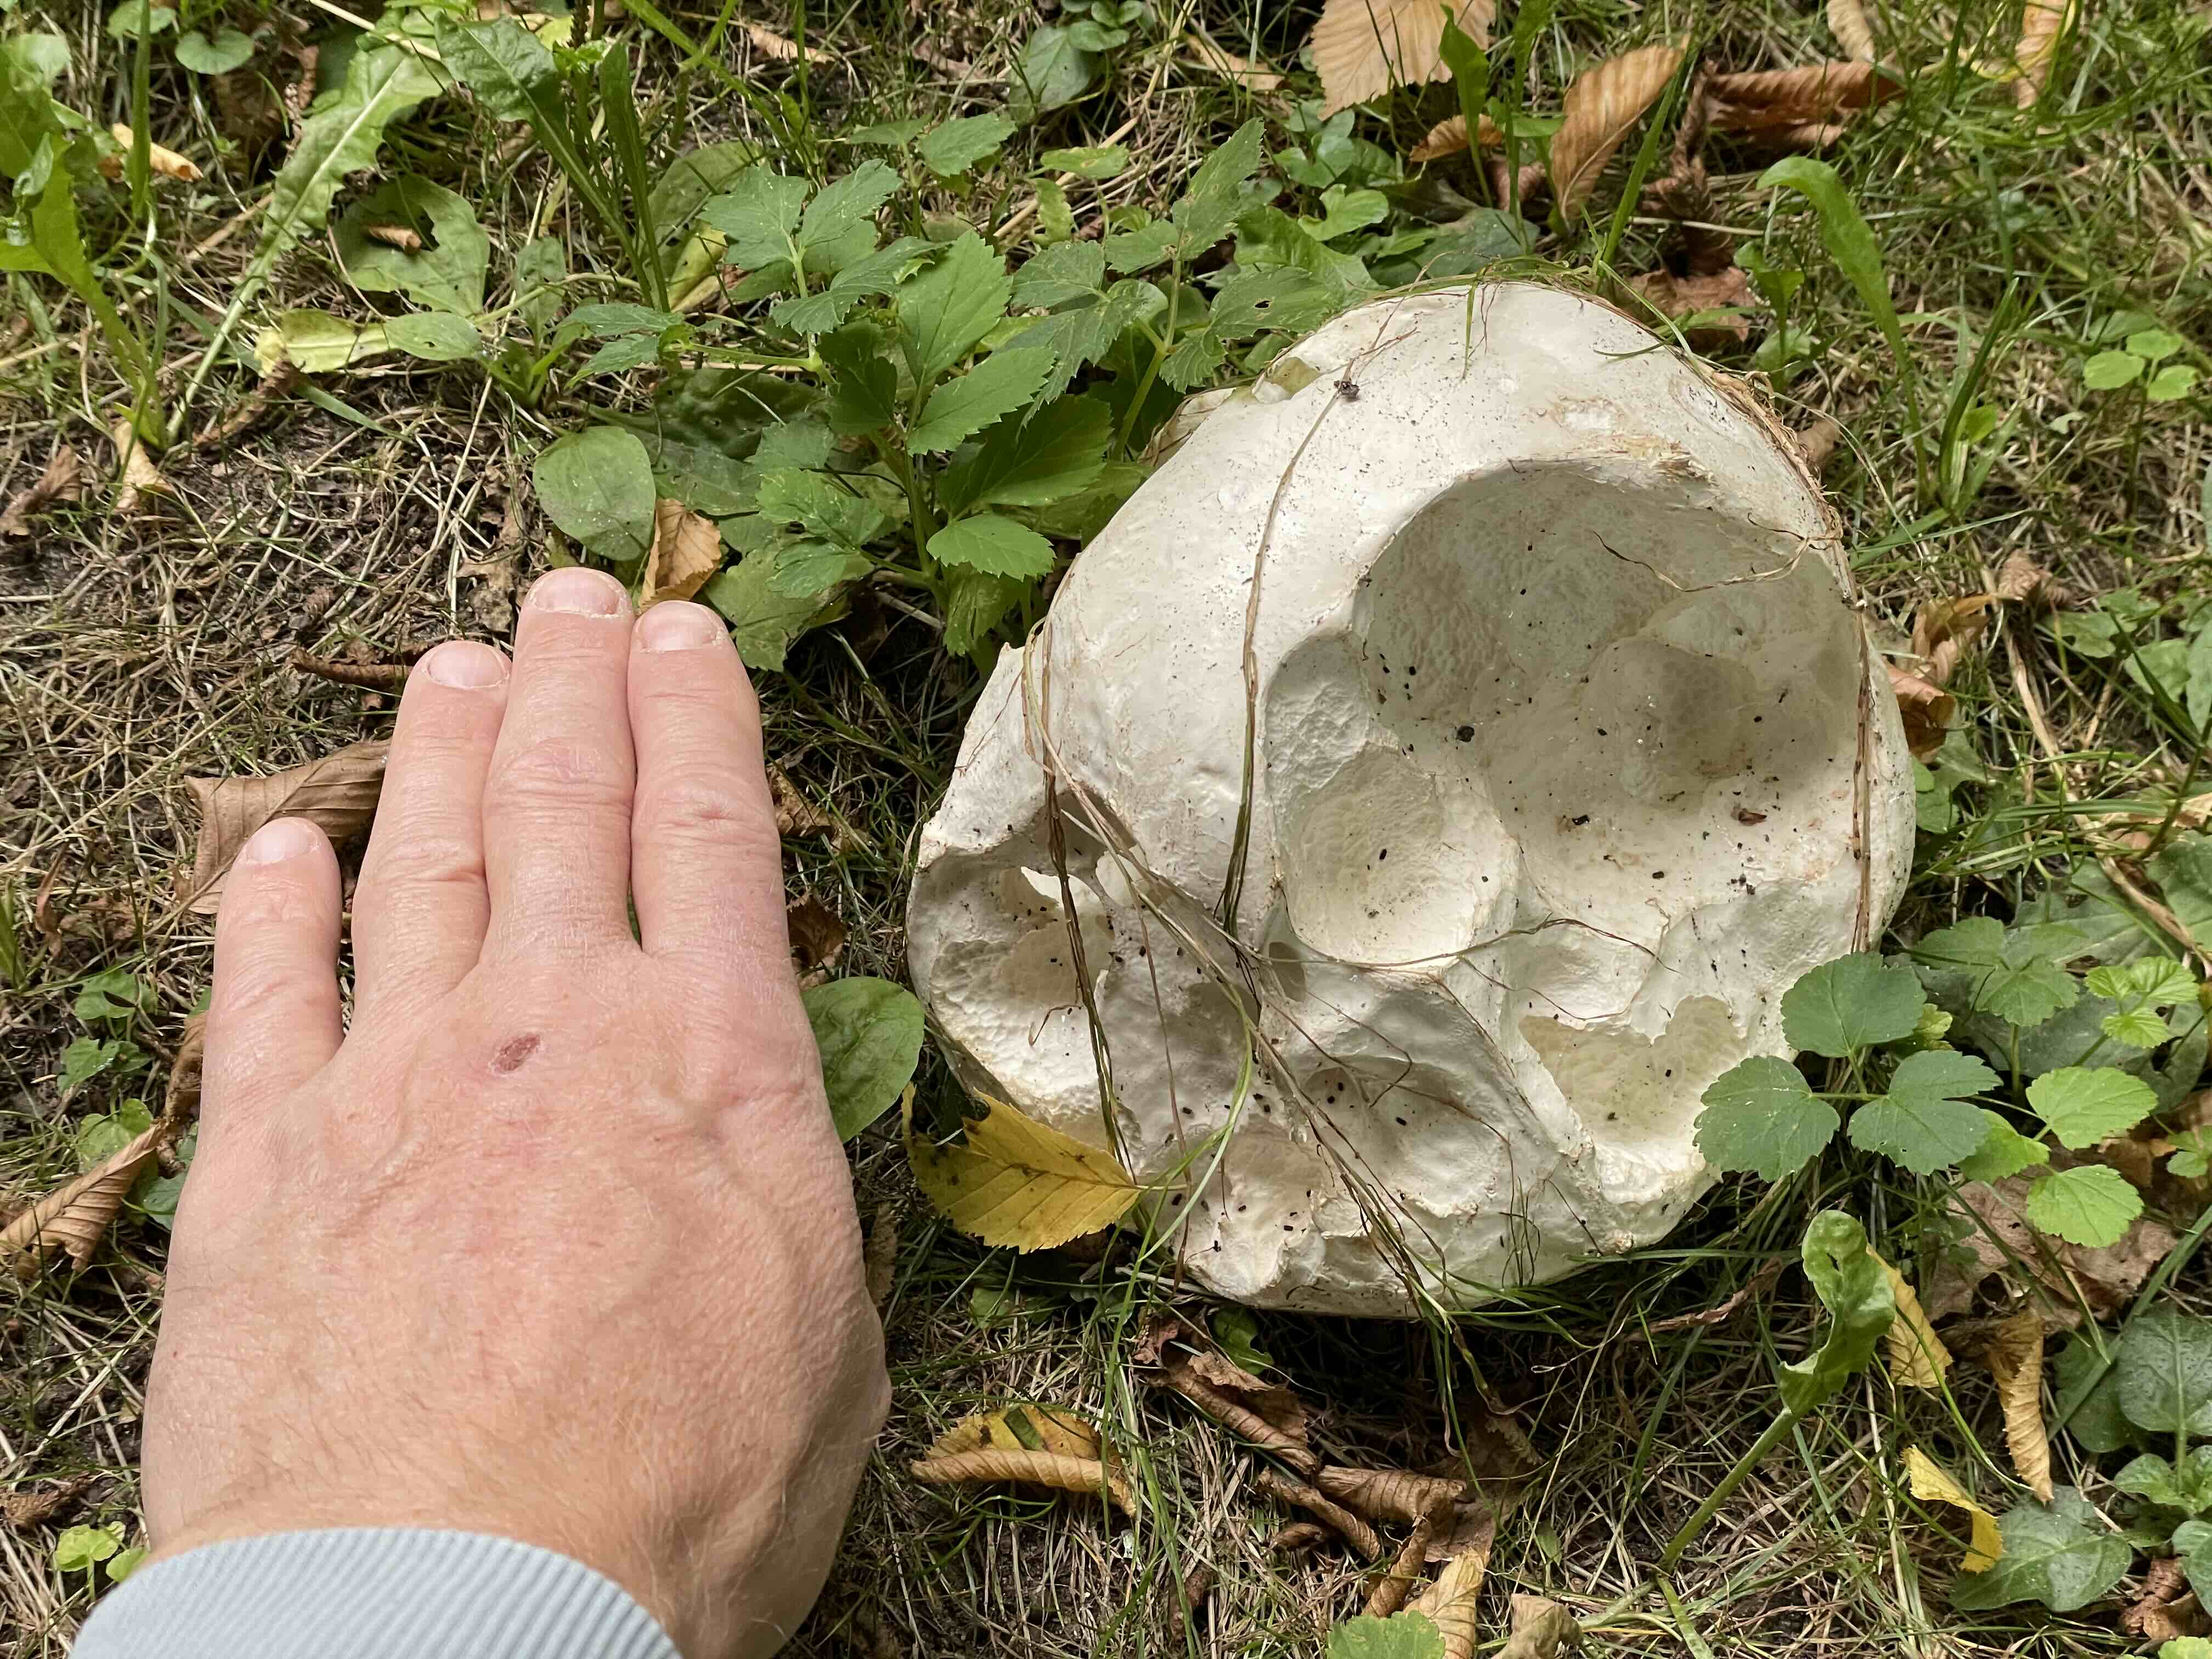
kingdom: Fungi
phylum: Basidiomycota
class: Agaricomycetes
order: Agaricales
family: Lycoperdaceae
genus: Calvatia
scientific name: Calvatia gigantea
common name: kæmpestøvbold
